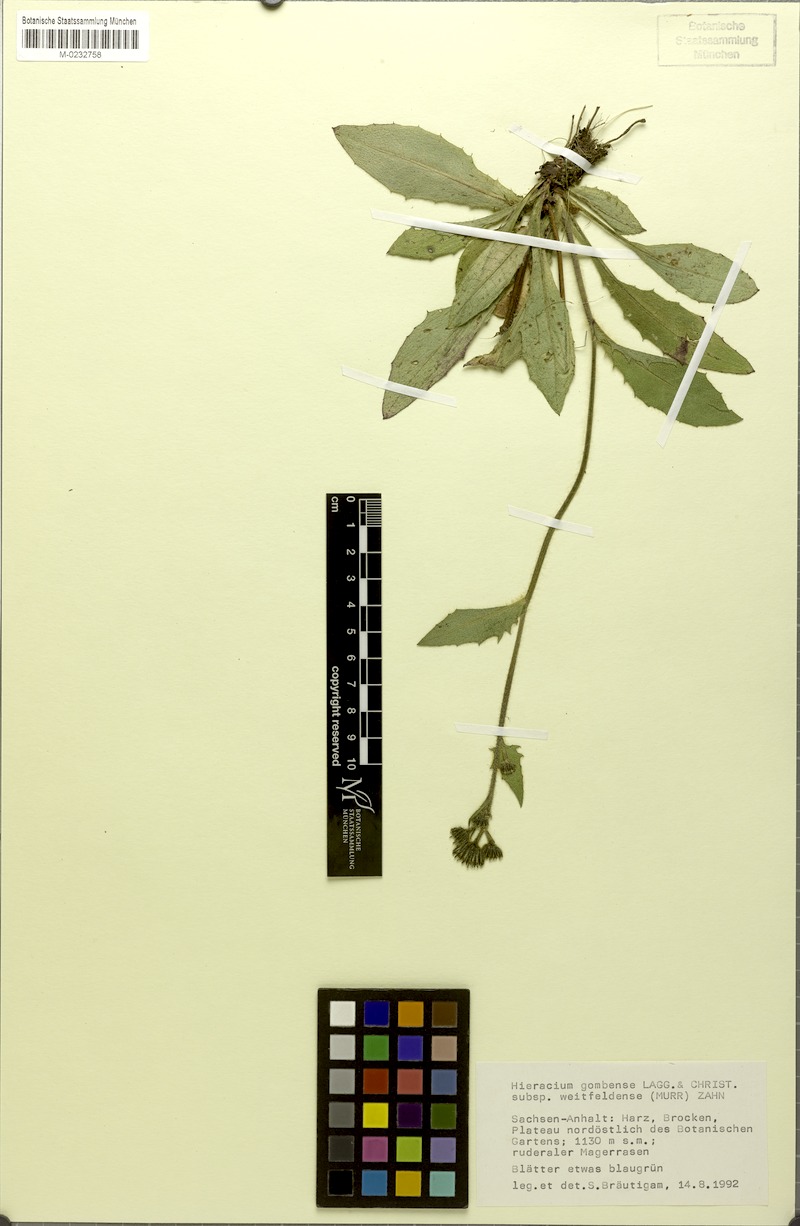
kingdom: Plantae
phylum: Tracheophyta
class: Magnoliopsida
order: Asterales
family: Asteraceae
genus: Hieracium
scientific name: Hieracium gombense
